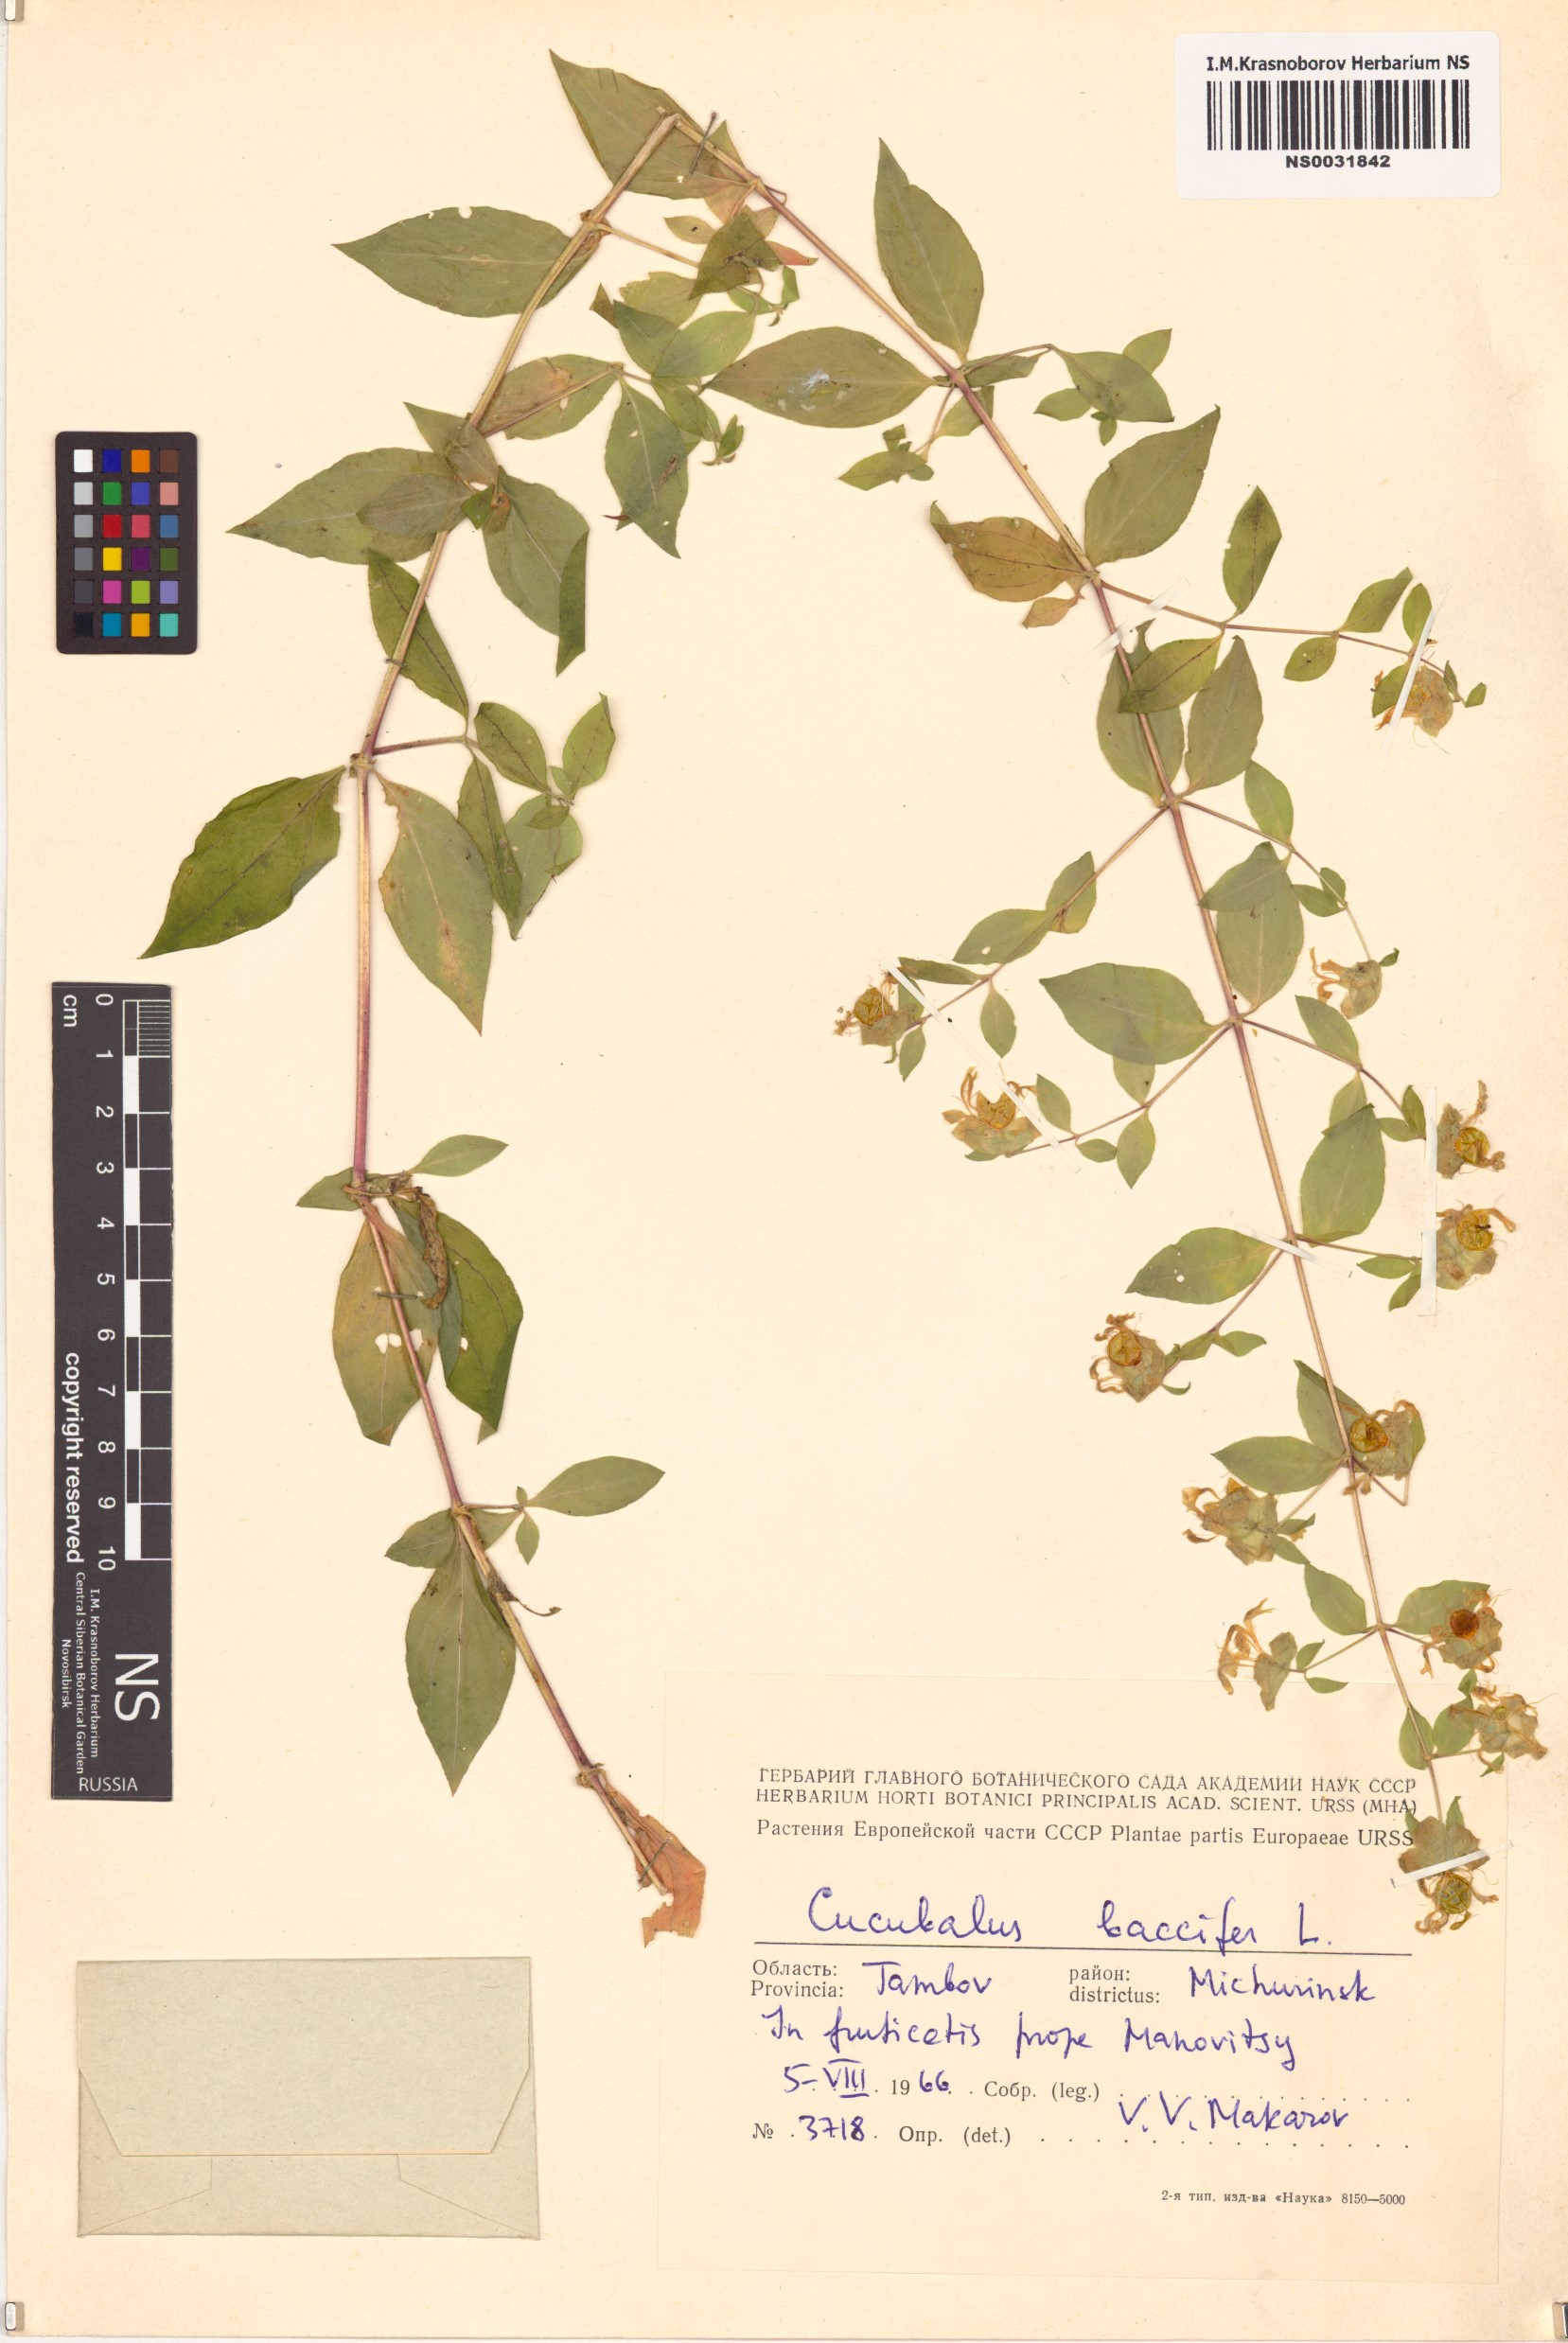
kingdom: Plantae
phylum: Tracheophyta
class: Magnoliopsida
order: Caryophyllales
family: Caryophyllaceae
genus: Silene
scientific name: Silene baccifera
